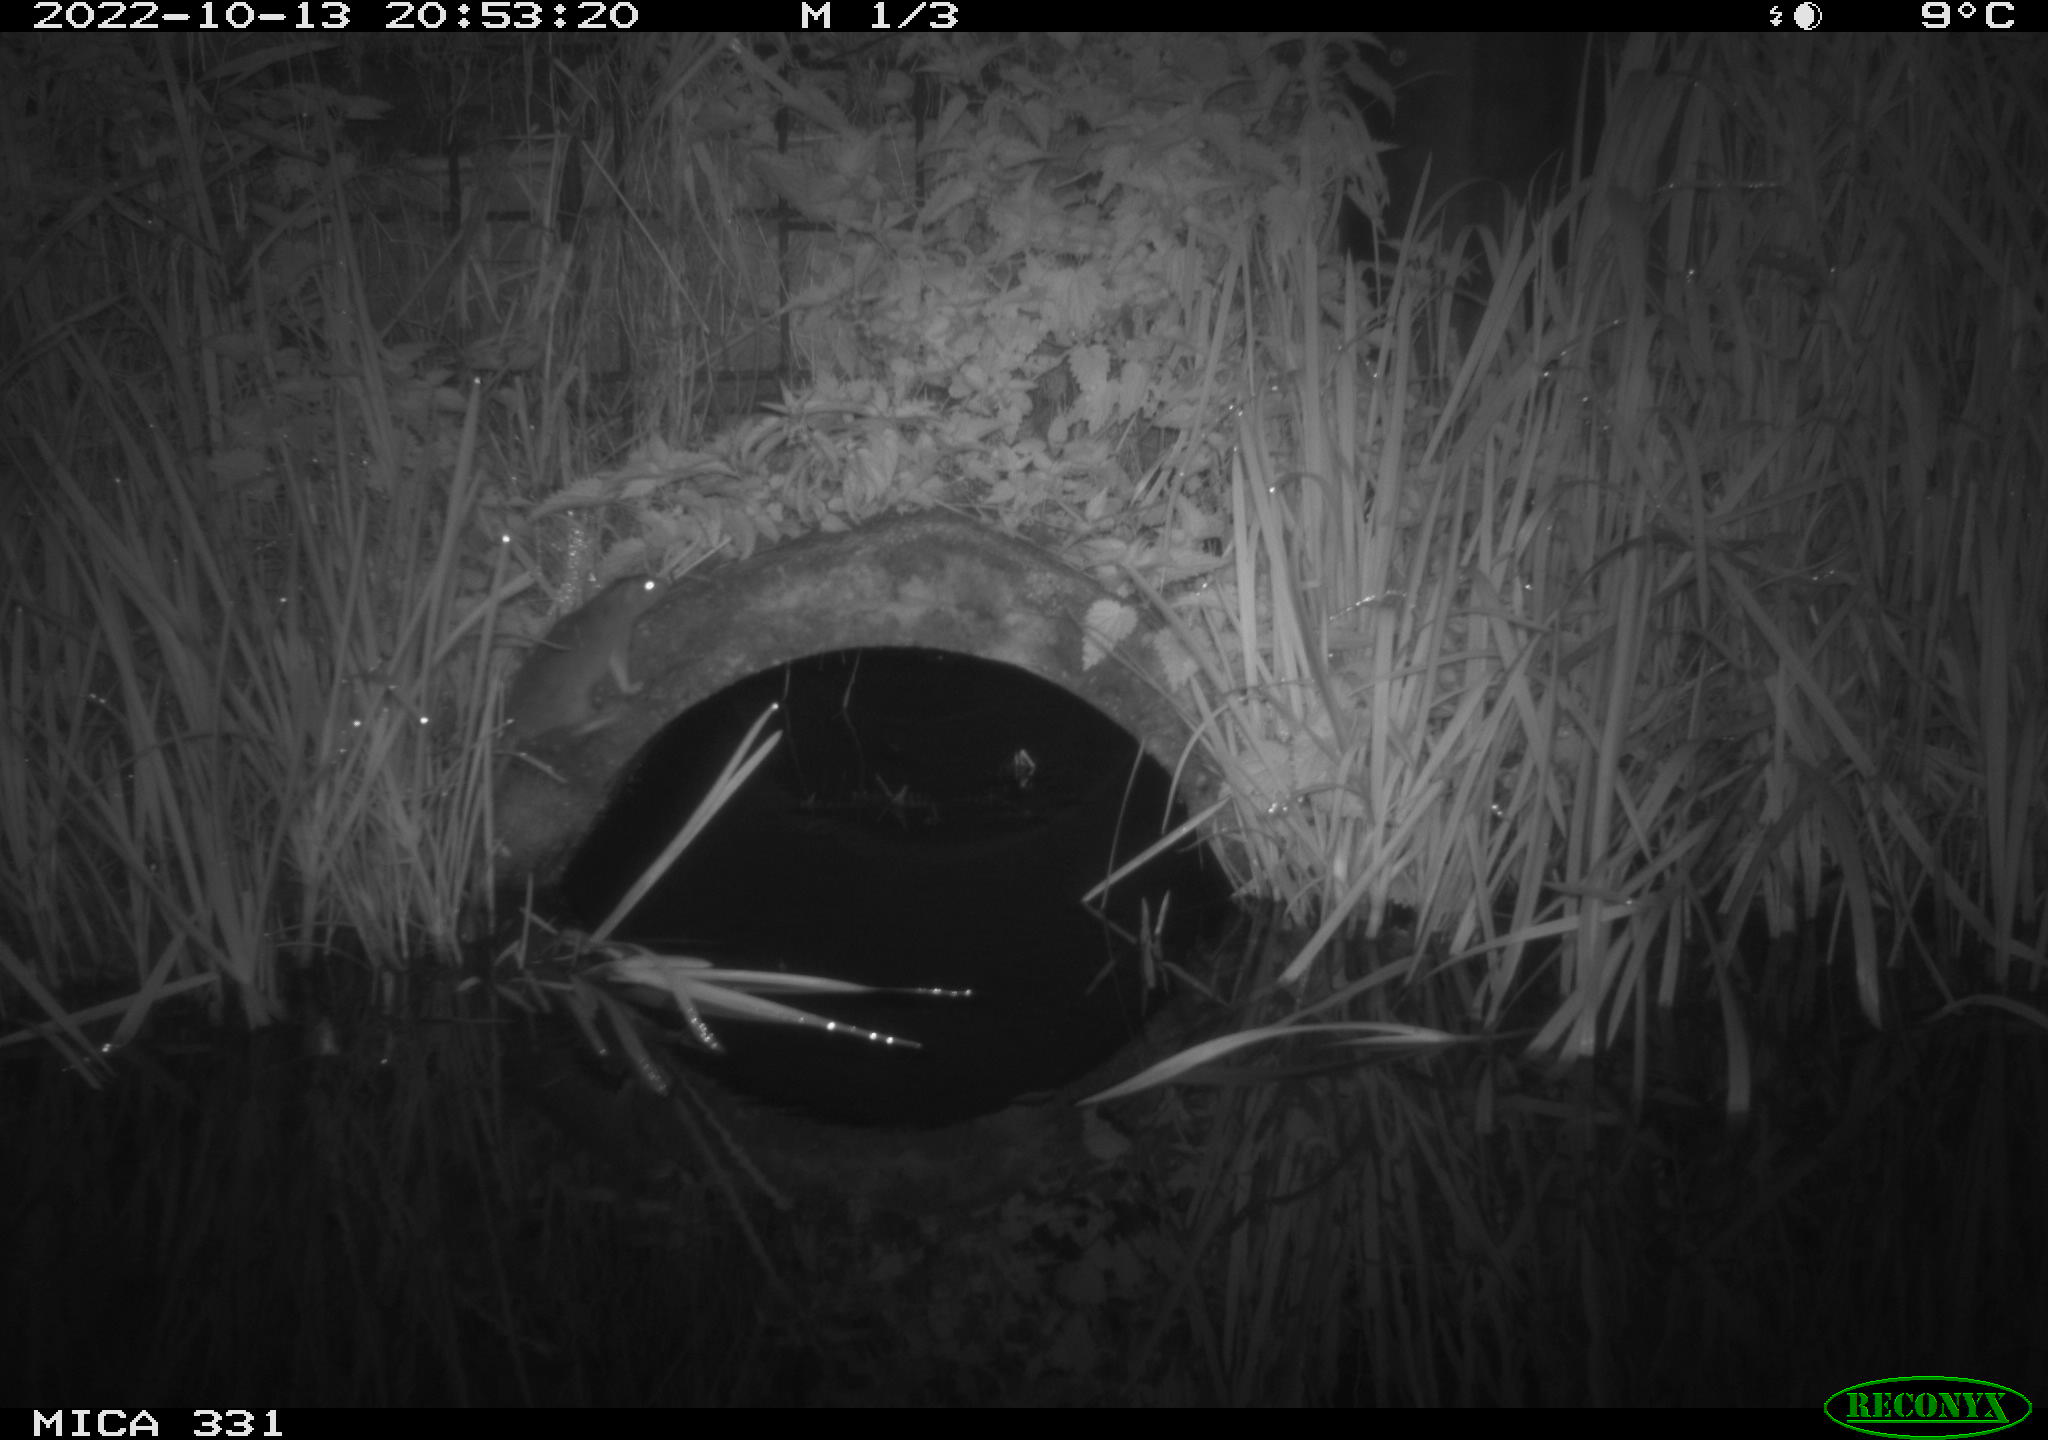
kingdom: Animalia
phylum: Chordata
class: Mammalia
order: Rodentia
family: Muridae
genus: Rattus
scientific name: Rattus norvegicus
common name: Brown rat
